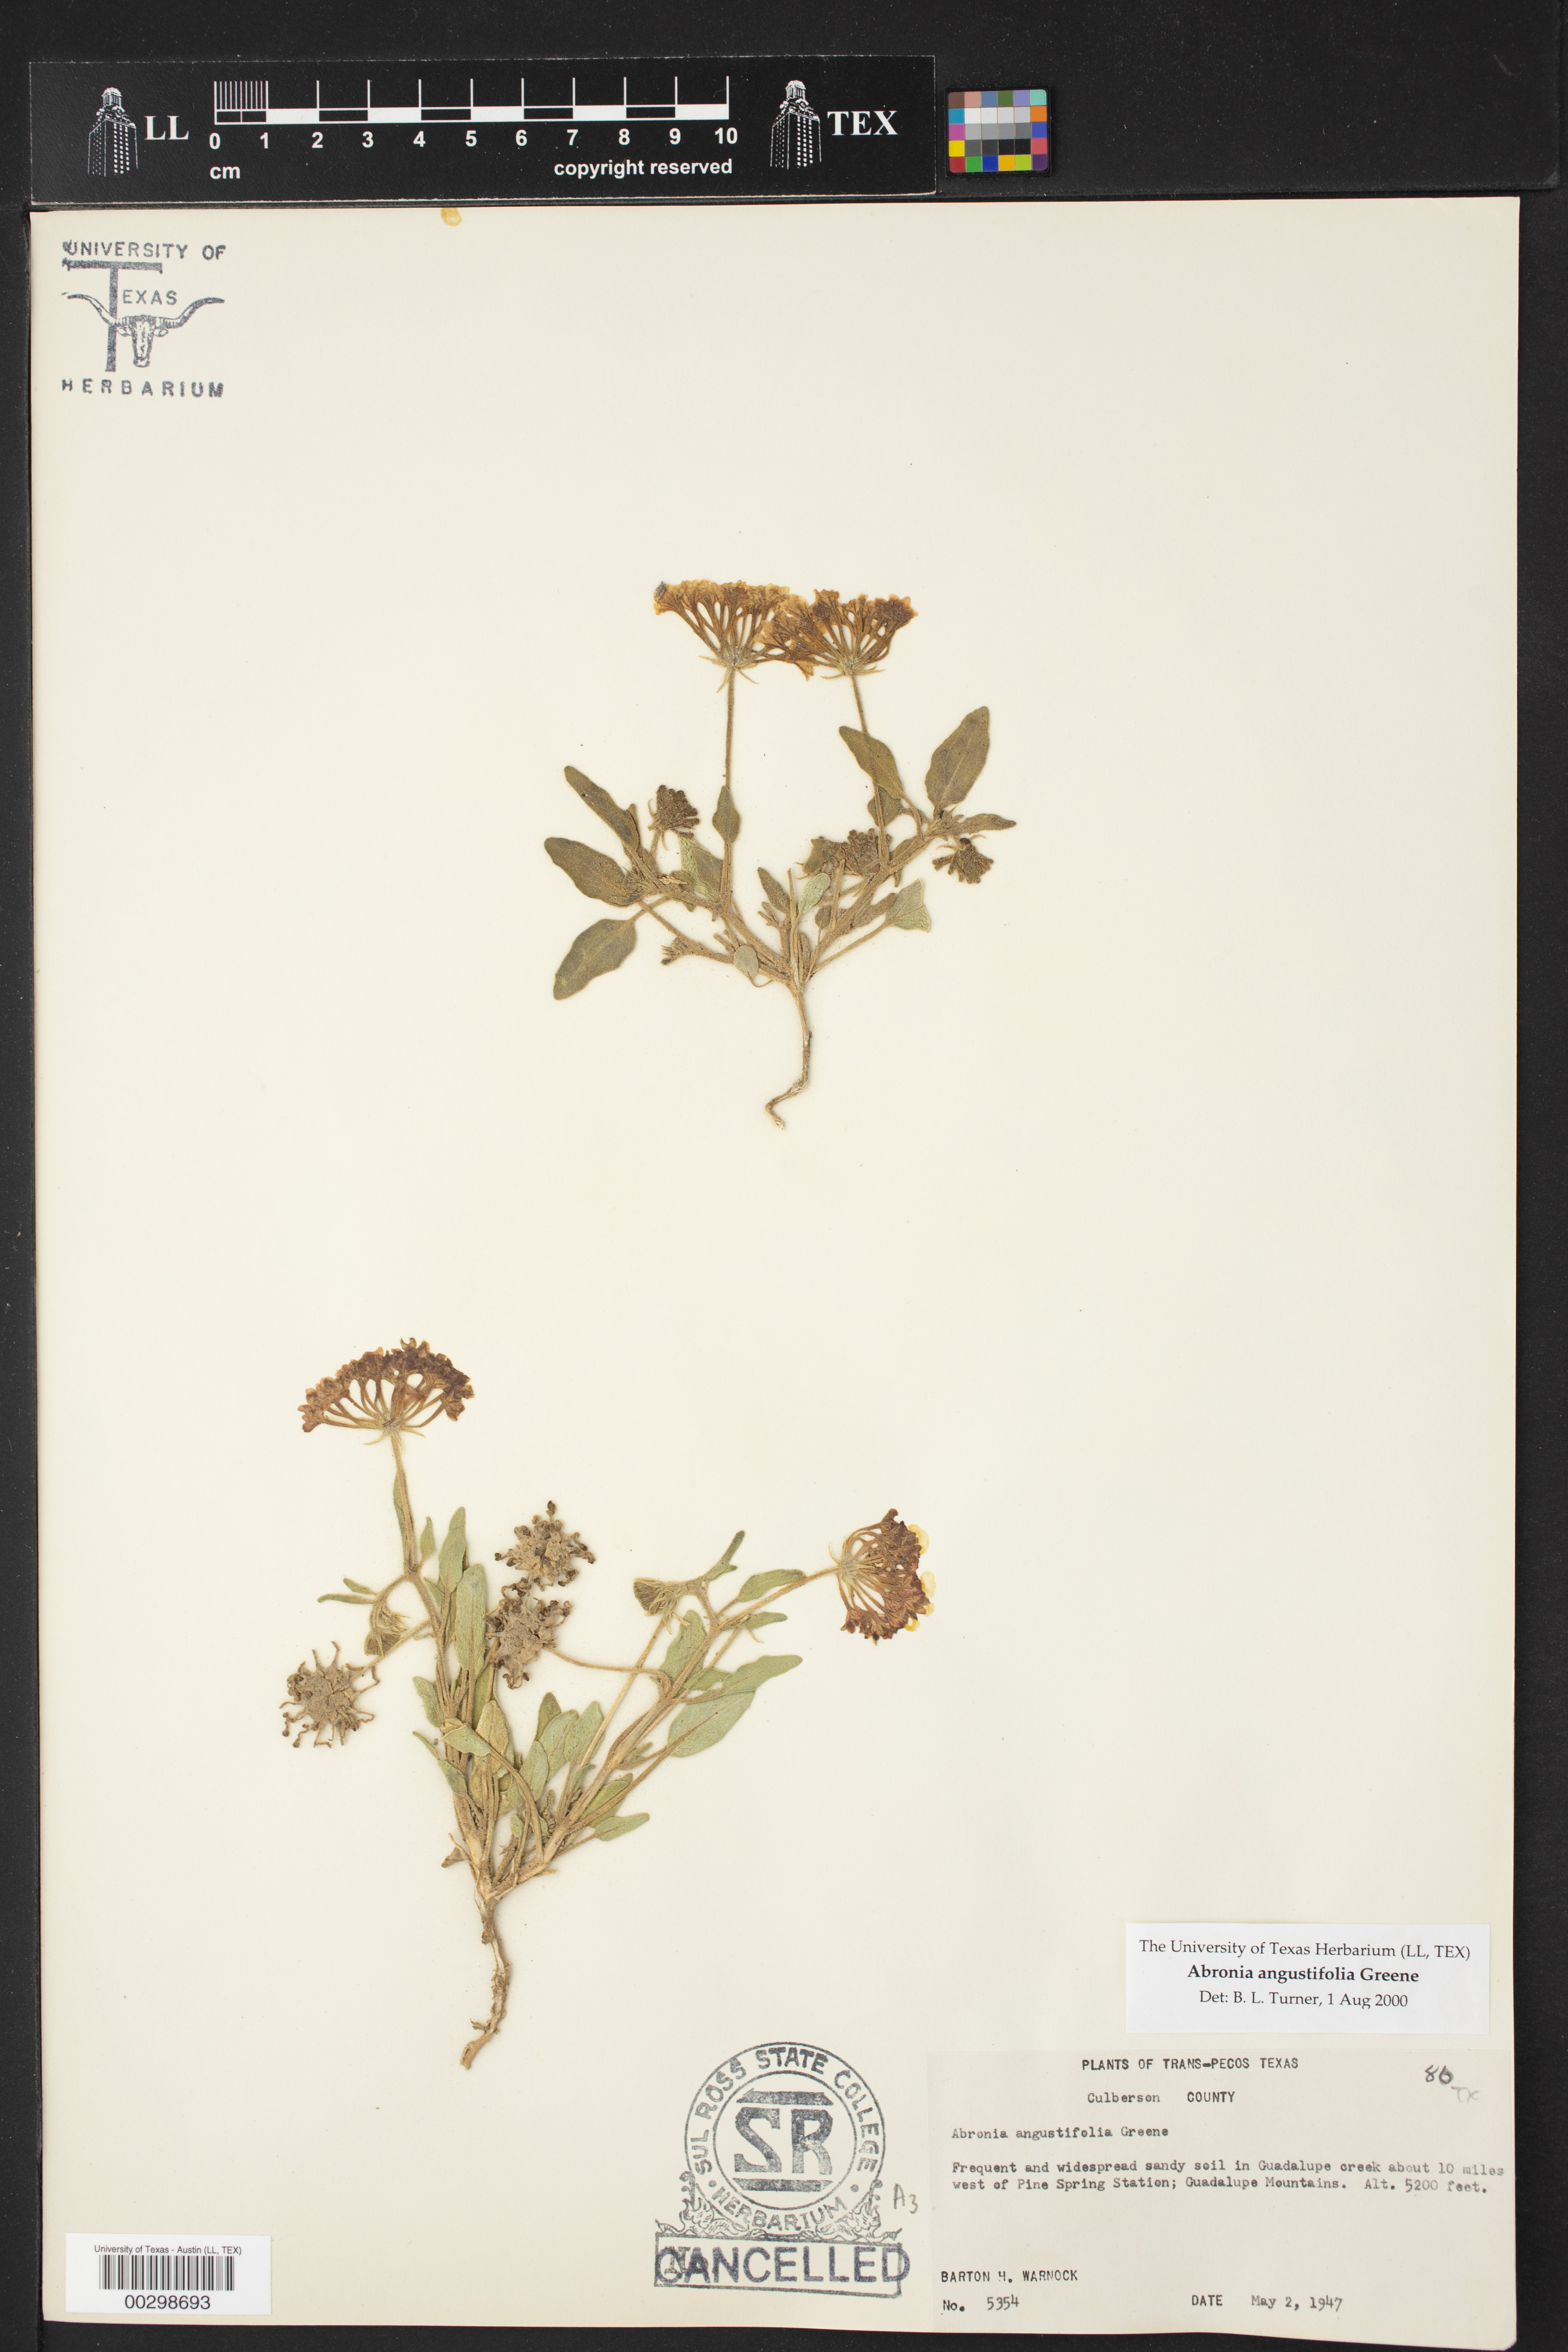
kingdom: Plantae
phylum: Tracheophyta
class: Magnoliopsida
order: Caryophyllales
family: Nyctaginaceae
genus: Abronia
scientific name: Abronia angustifolia
